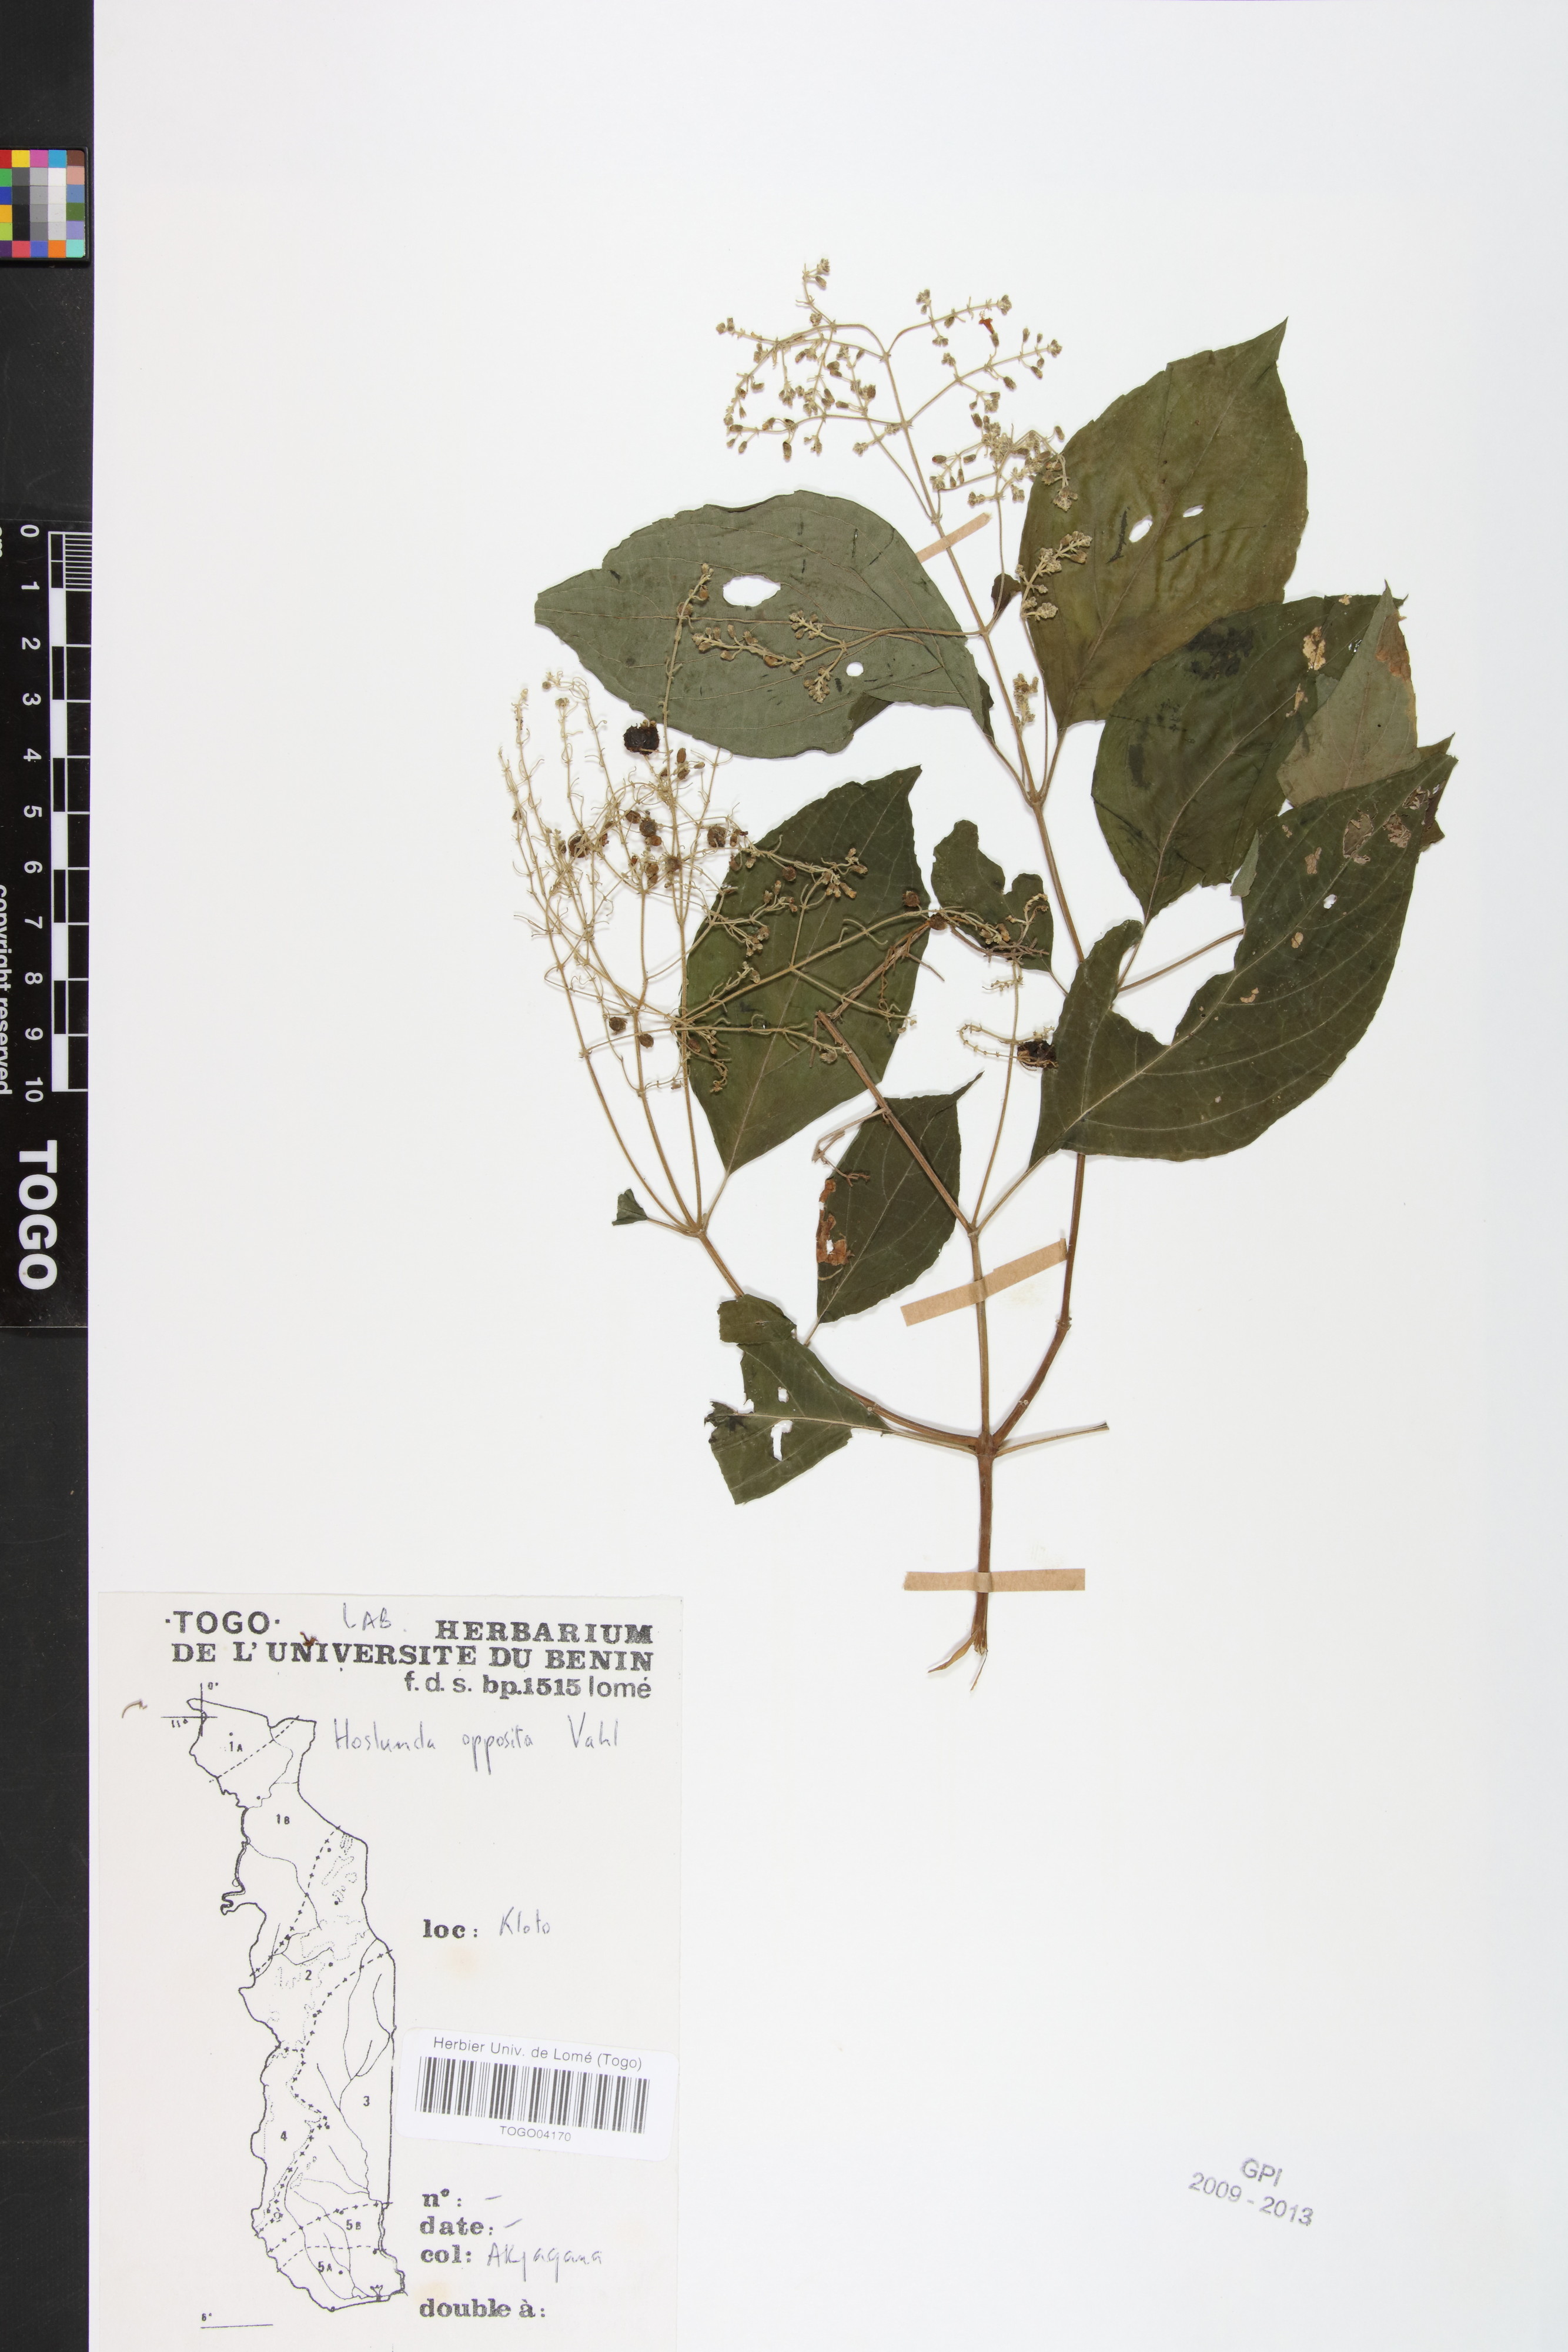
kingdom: Plantae
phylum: Tracheophyta
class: Magnoliopsida
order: Lamiales
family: Lamiaceae
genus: Hoslundia
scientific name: Hoslundia opposita
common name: Kamyuye
